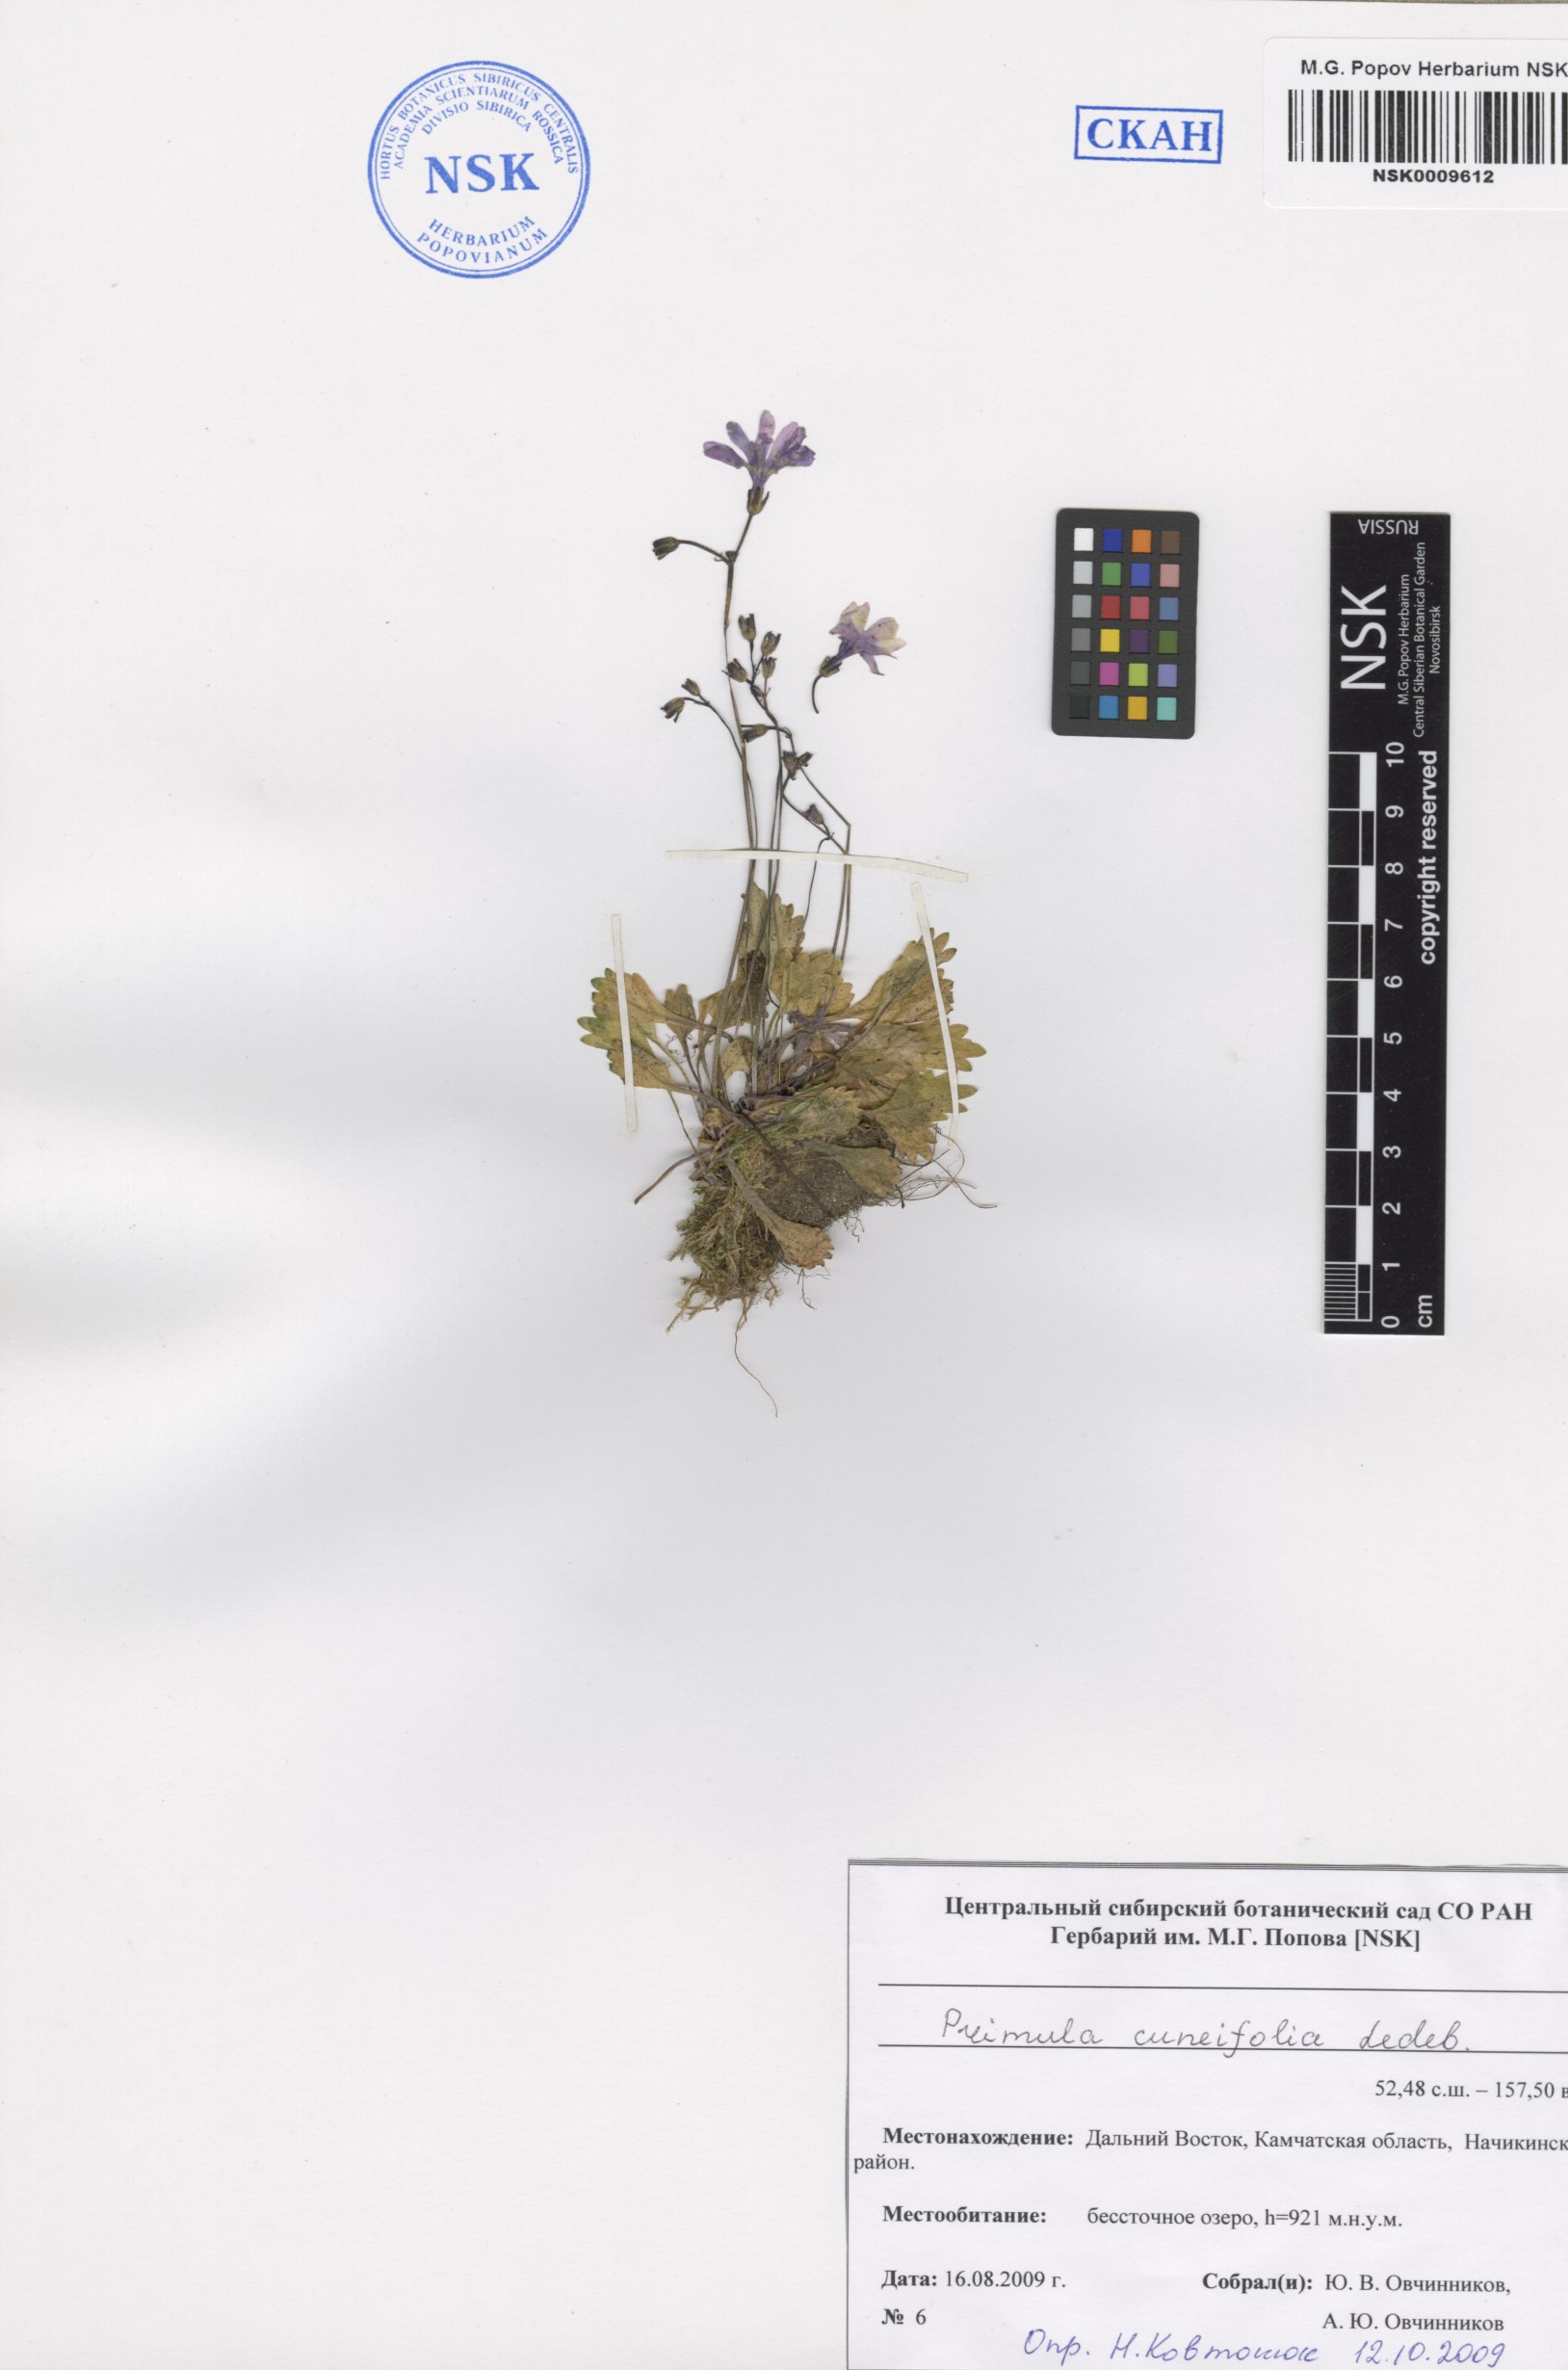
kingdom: Plantae
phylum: Tracheophyta
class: Magnoliopsida
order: Ericales
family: Primulaceae
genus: Primula
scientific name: Primula cuneifolia
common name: Wedge-leaved primrose
